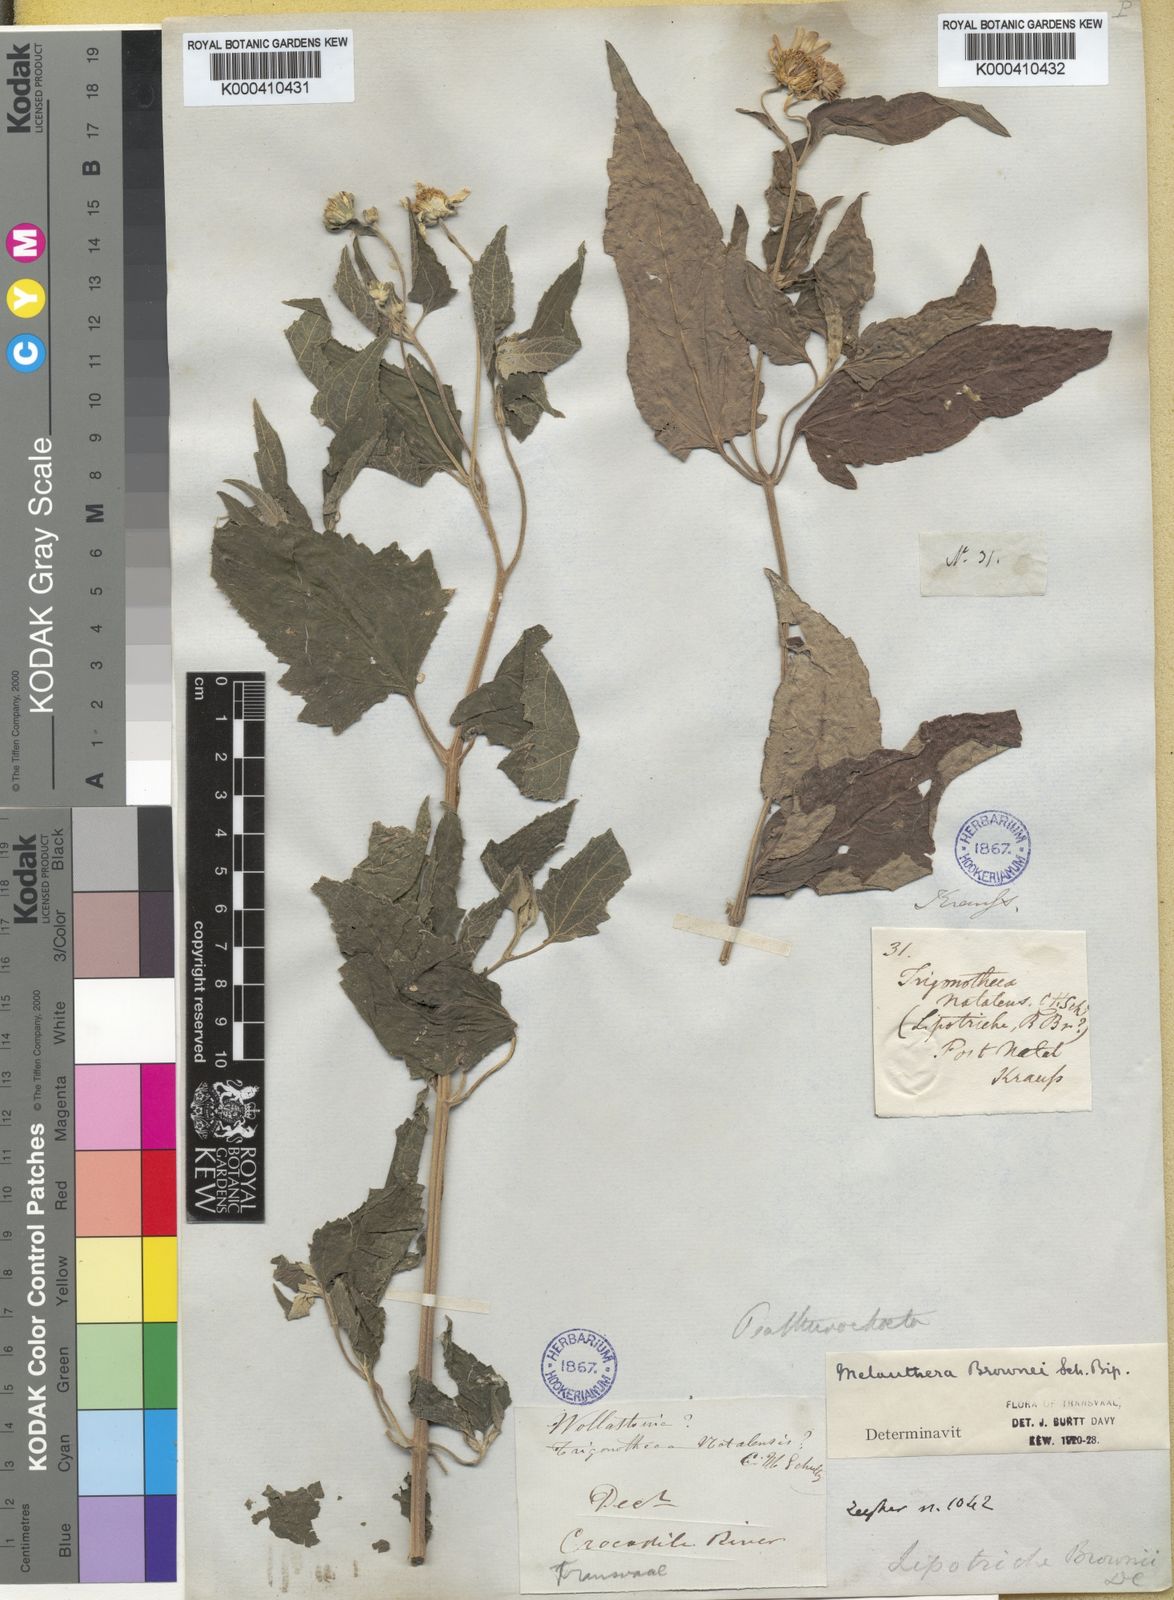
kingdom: Plantae
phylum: Tracheophyta
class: Magnoliopsida
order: Asterales
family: Asteraceae
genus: Melanthera
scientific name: Melanthera
